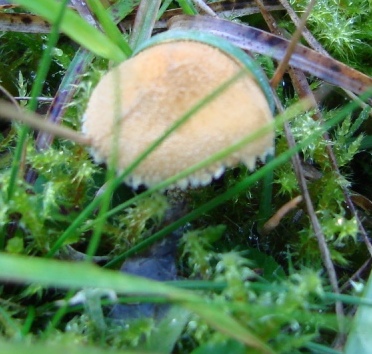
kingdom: Fungi
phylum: Basidiomycota
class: Agaricomycetes
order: Agaricales
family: Tricholomataceae
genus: Cystoderma
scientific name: Cystoderma amianthinum
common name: okkergul grynhat
